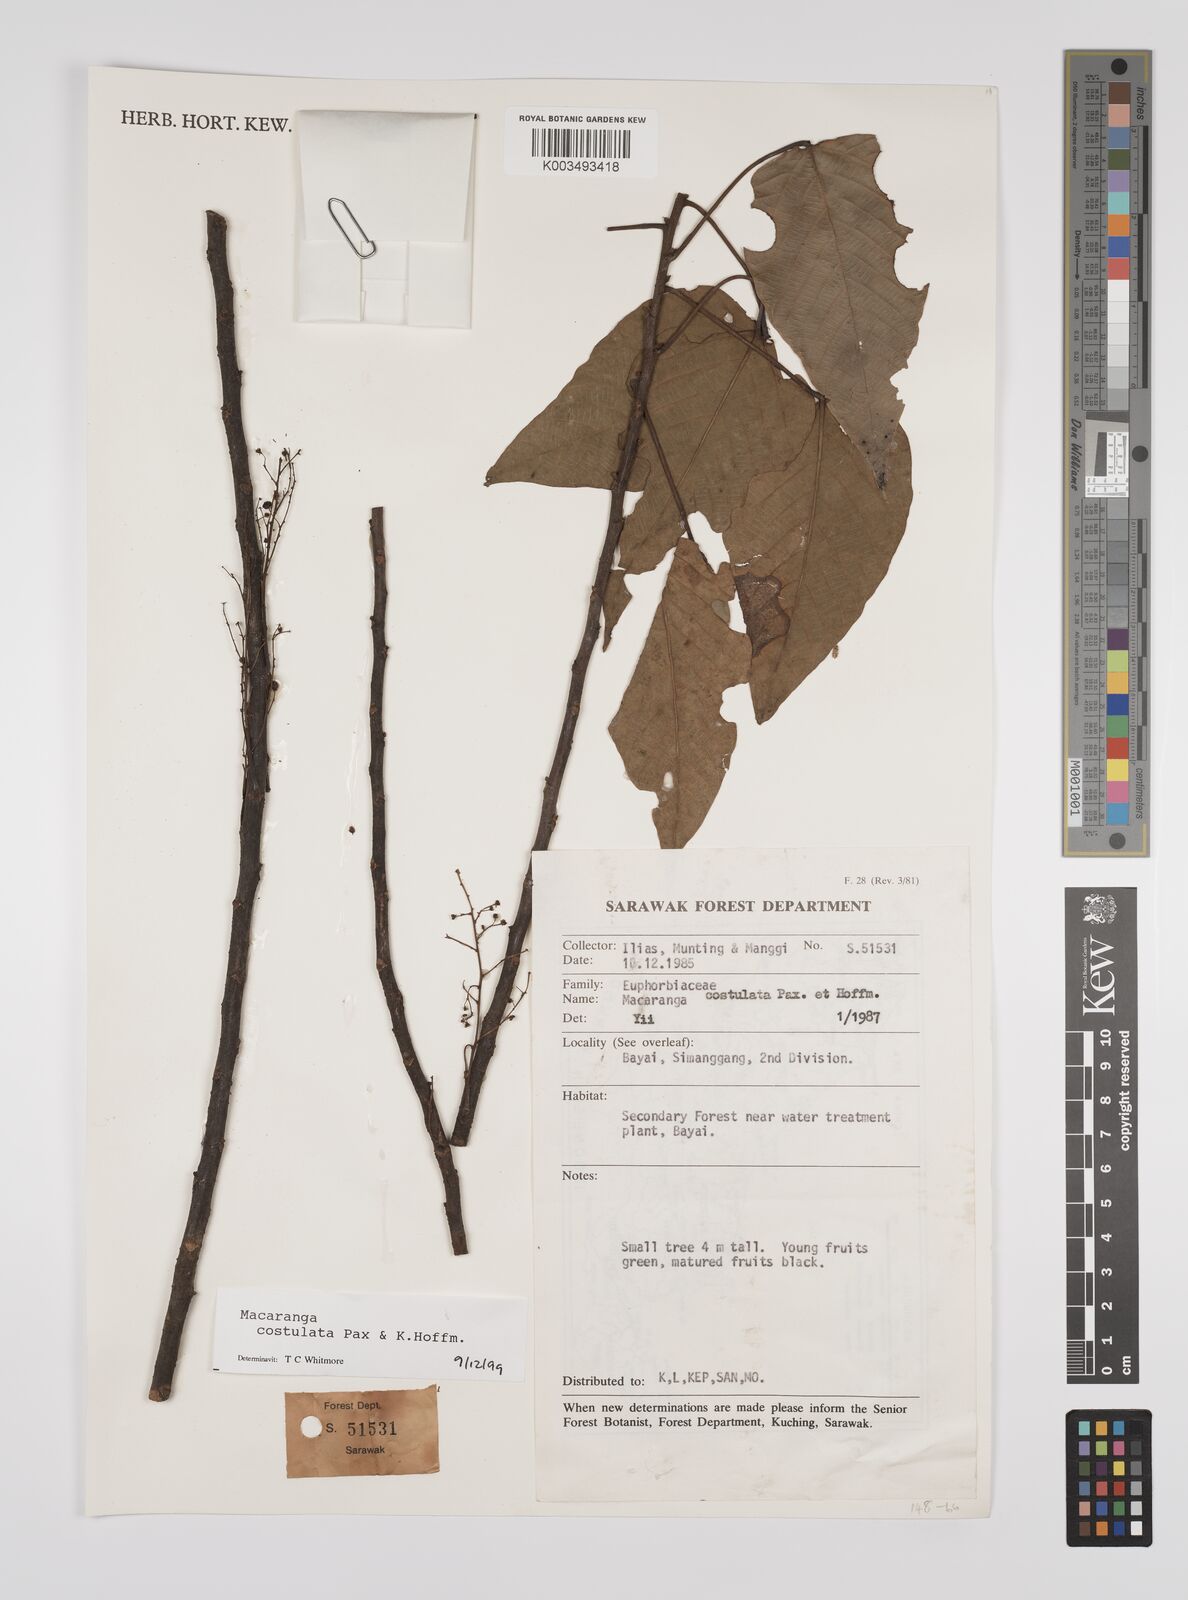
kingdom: Plantae
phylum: Tracheophyta
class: Magnoliopsida
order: Malpighiales
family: Euphorbiaceae
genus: Macaranga
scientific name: Macaranga costulata
